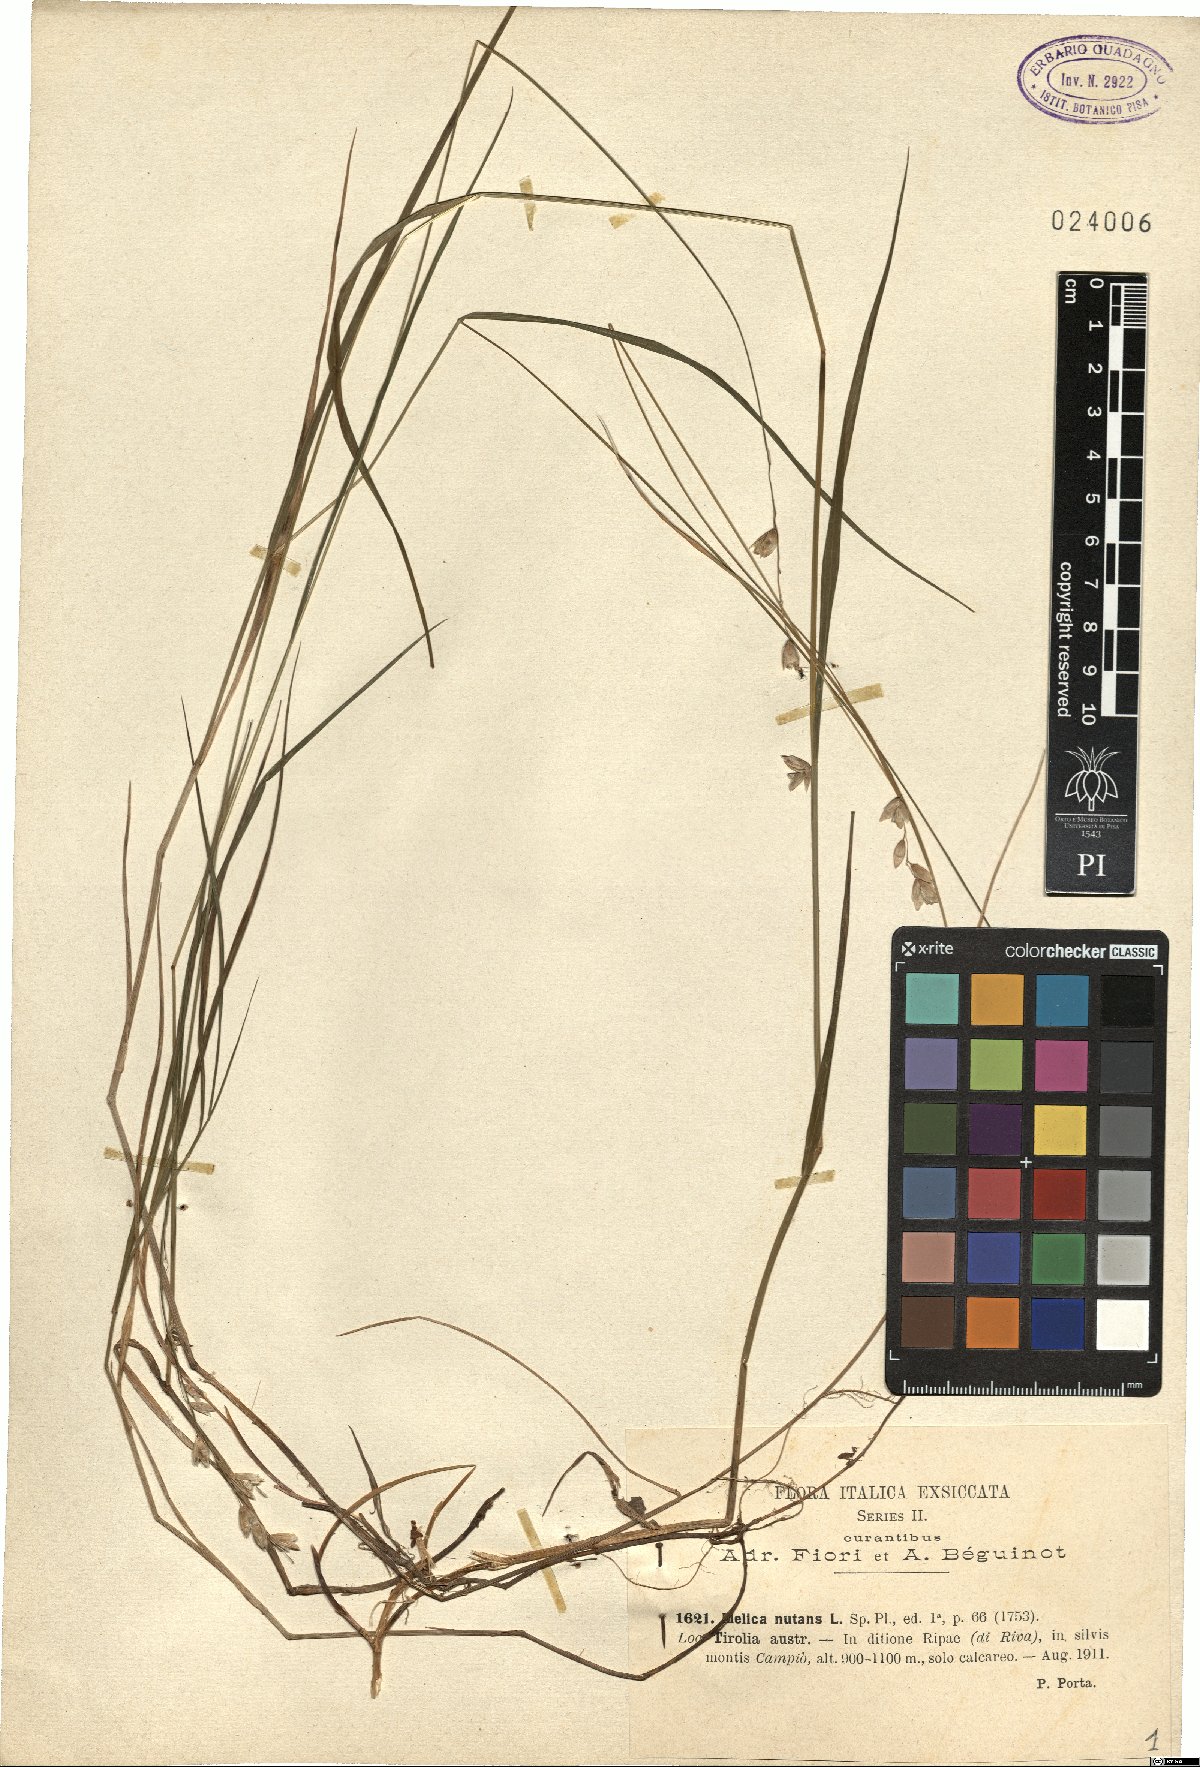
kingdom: Plantae
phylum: Tracheophyta
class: Liliopsida
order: Poales
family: Poaceae
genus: Melica
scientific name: Melica nutans
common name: Mountain melick
